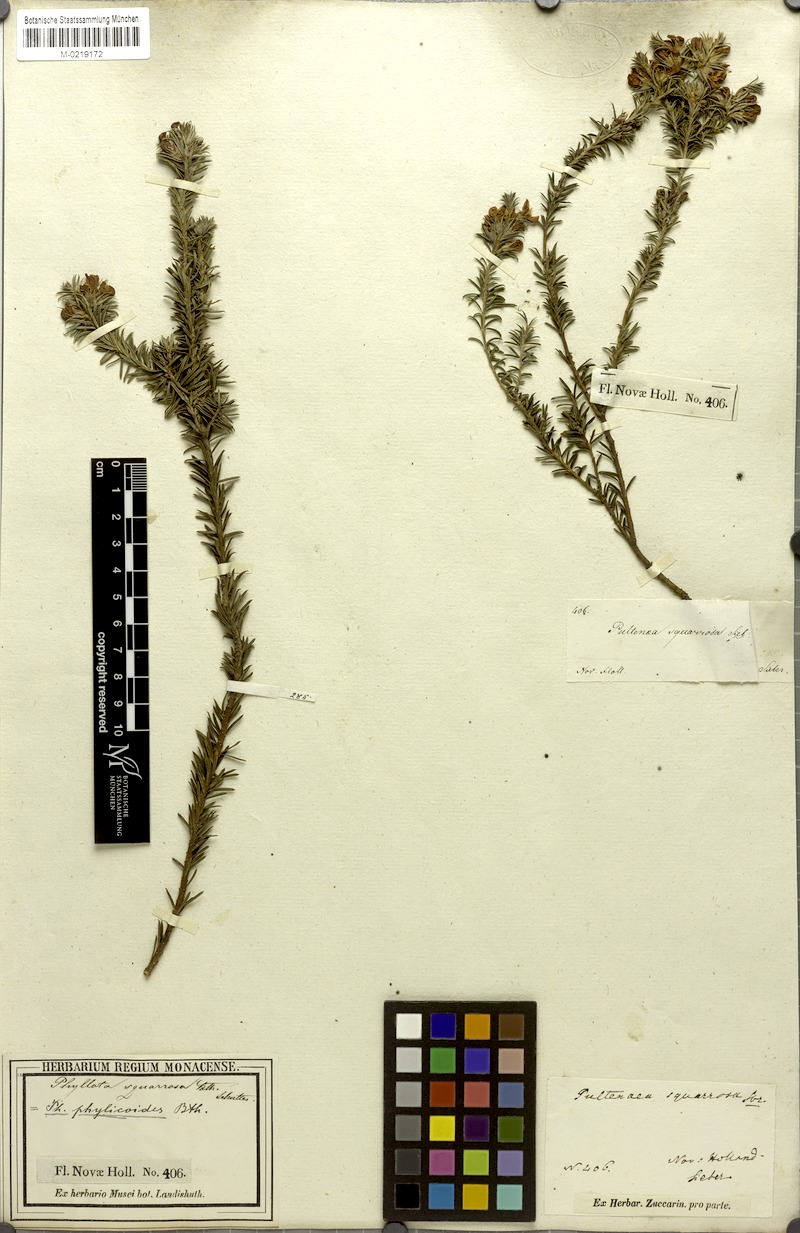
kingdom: Plantae
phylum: Tracheophyta
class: Magnoliopsida
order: Fabales
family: Fabaceae
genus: Phyllota
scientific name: Phyllota squarrosa
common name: Dense phyllota
